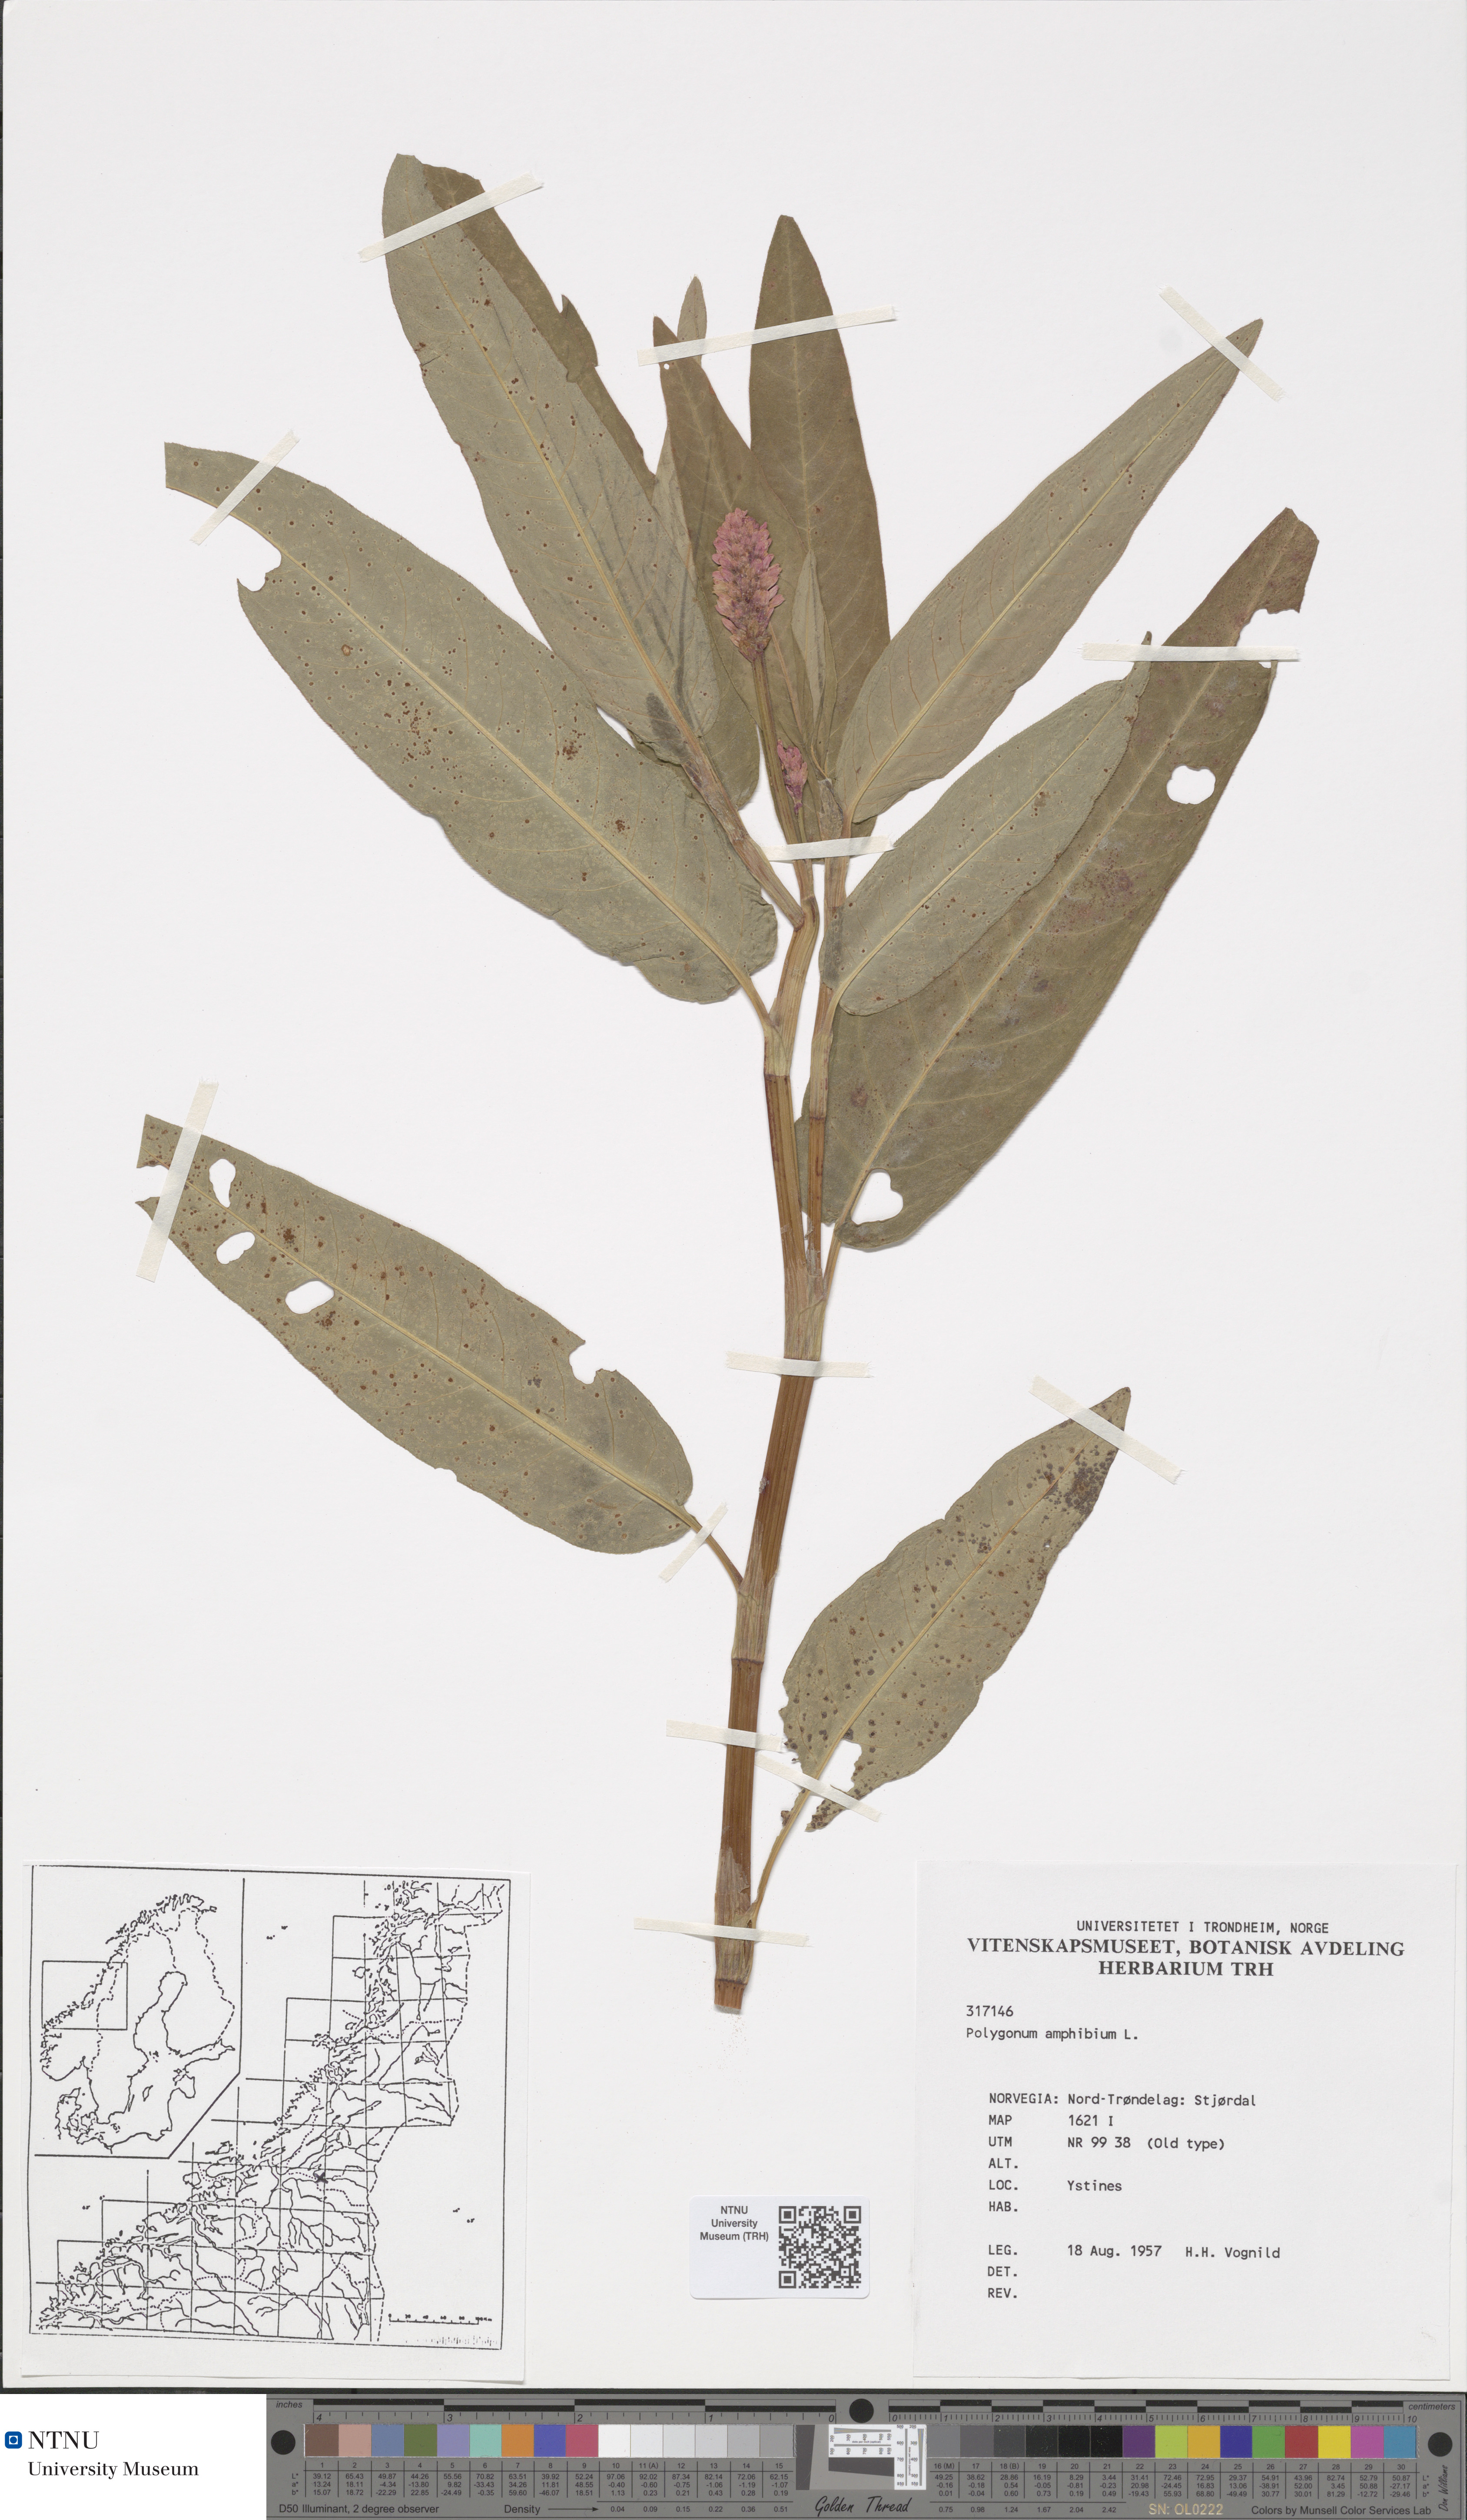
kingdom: Plantae
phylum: Tracheophyta
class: Magnoliopsida
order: Caryophyllales
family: Polygonaceae
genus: Persicaria
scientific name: Persicaria amphibia
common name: Amphibious bistort
